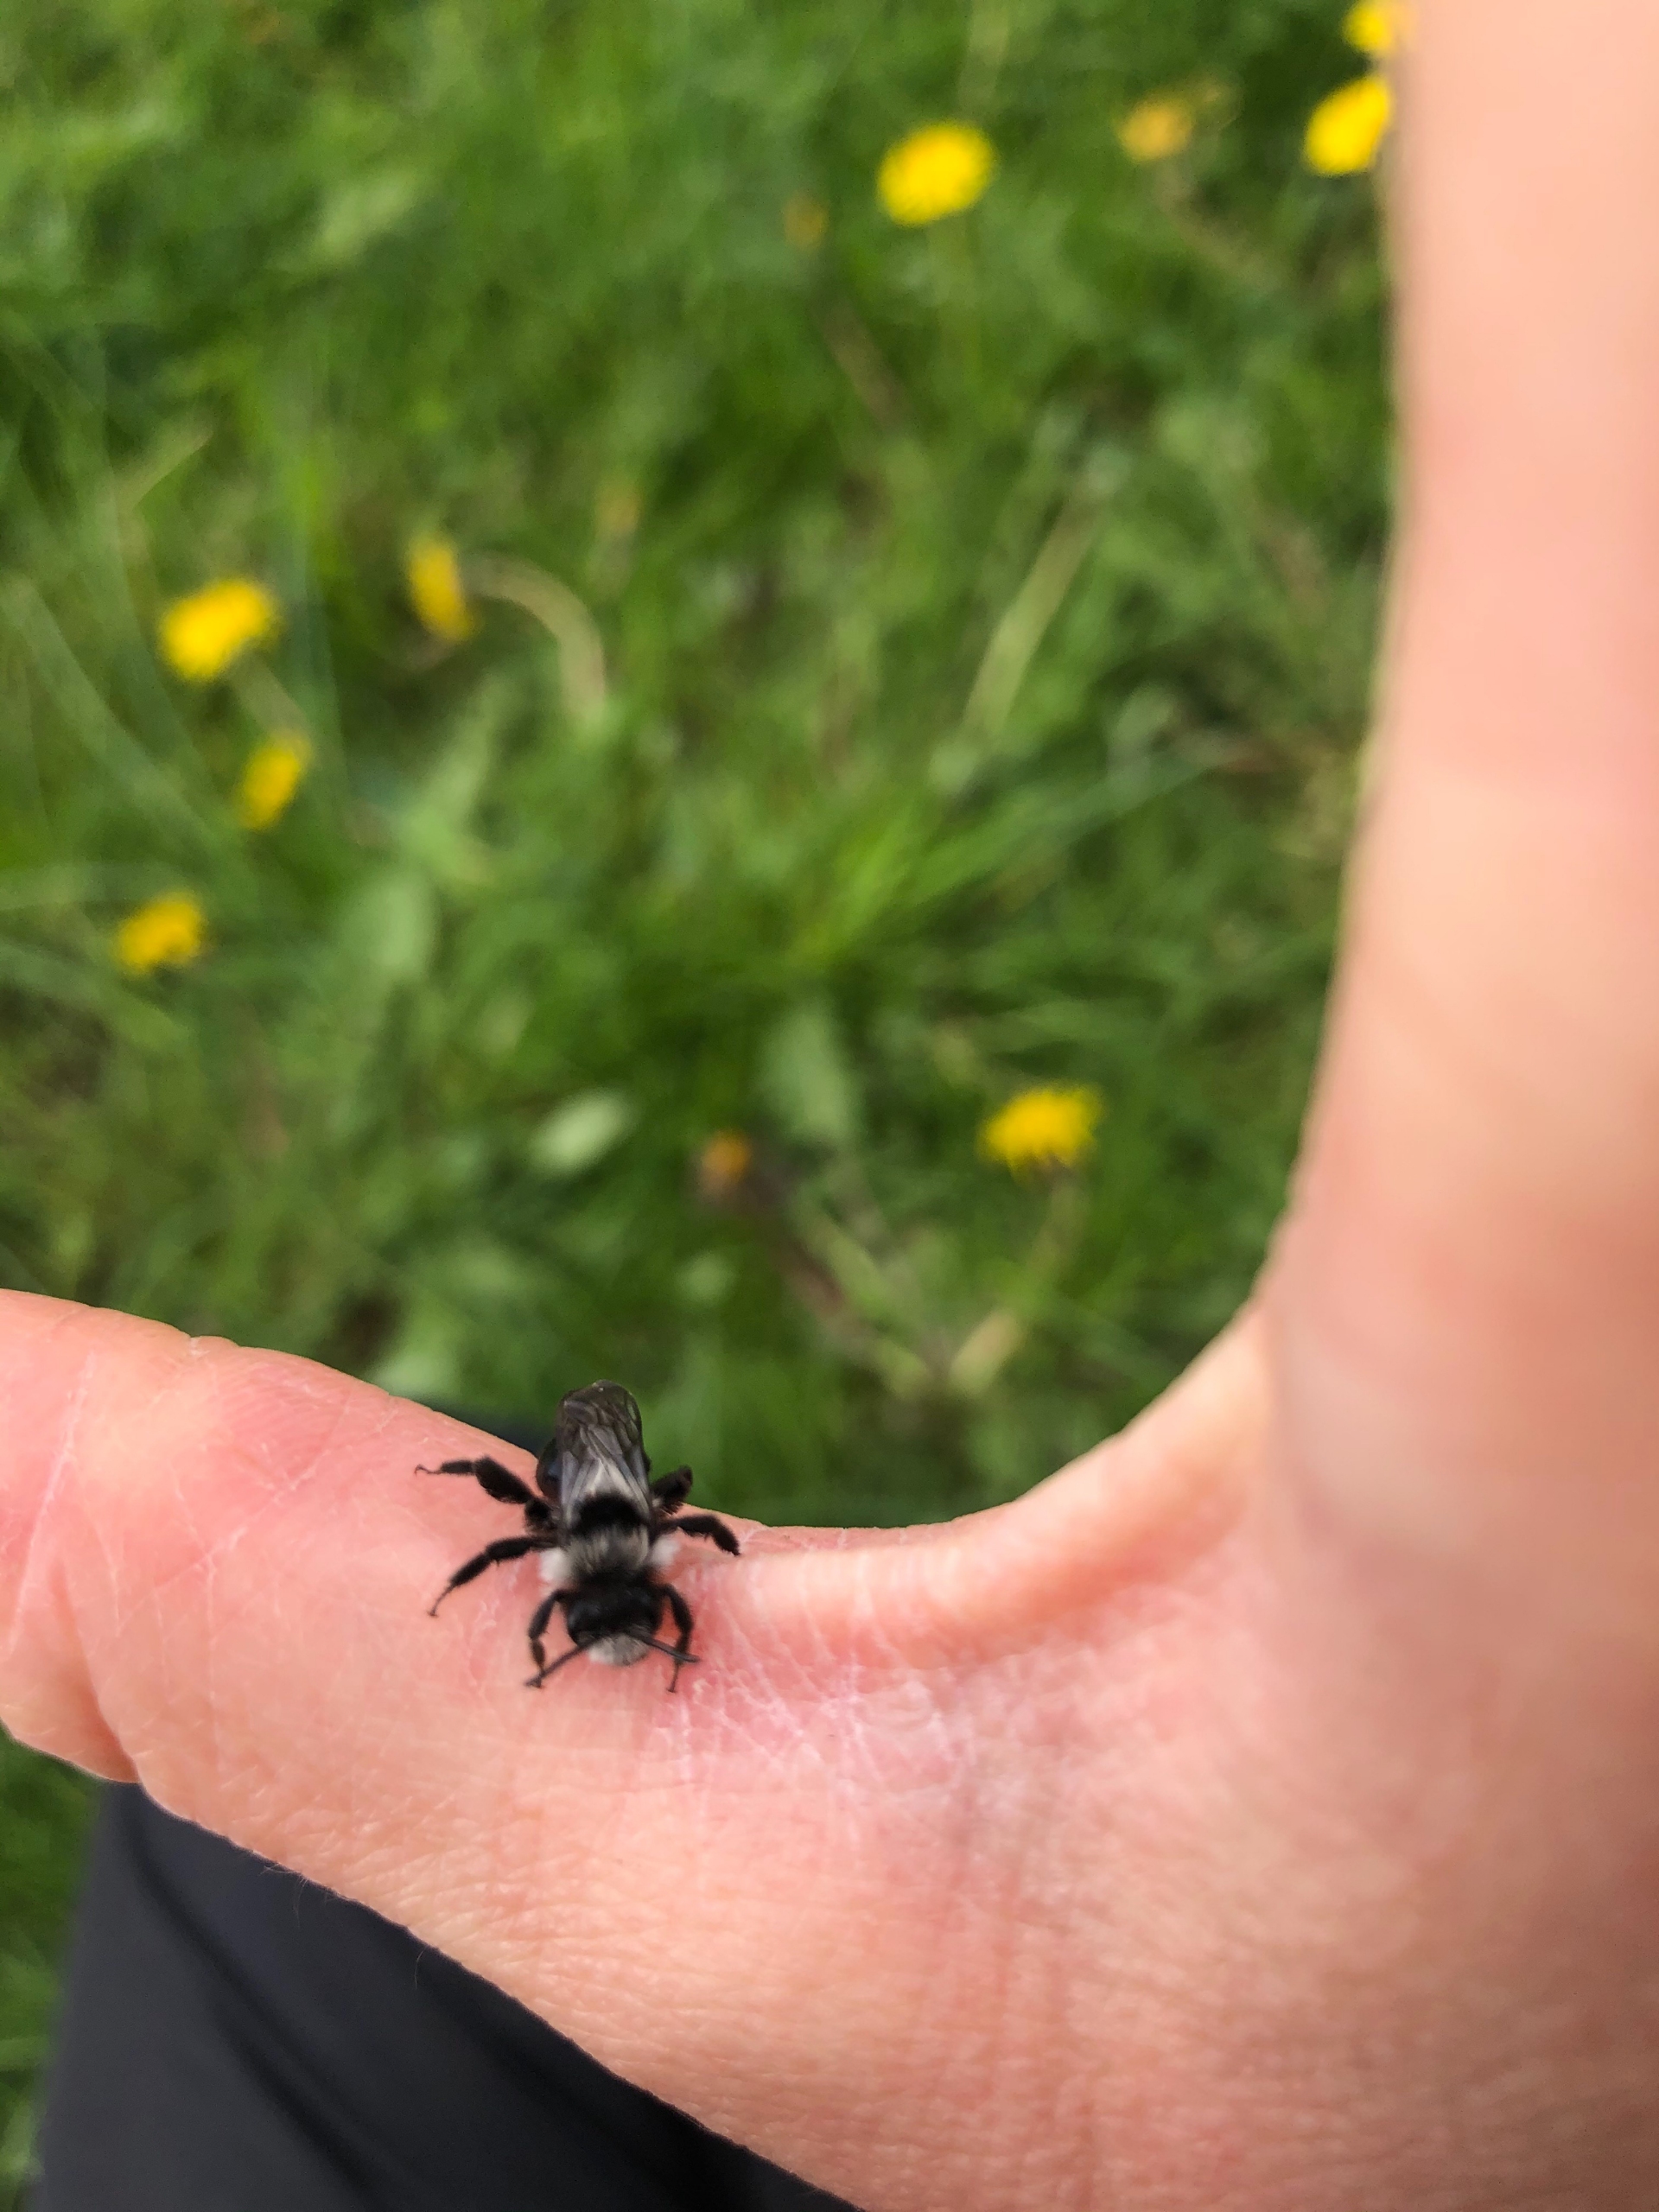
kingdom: Animalia
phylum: Arthropoda
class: Insecta
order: Hymenoptera
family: Andrenidae
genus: Andrena
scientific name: Andrena cineraria
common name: Sorthvid jordbi
